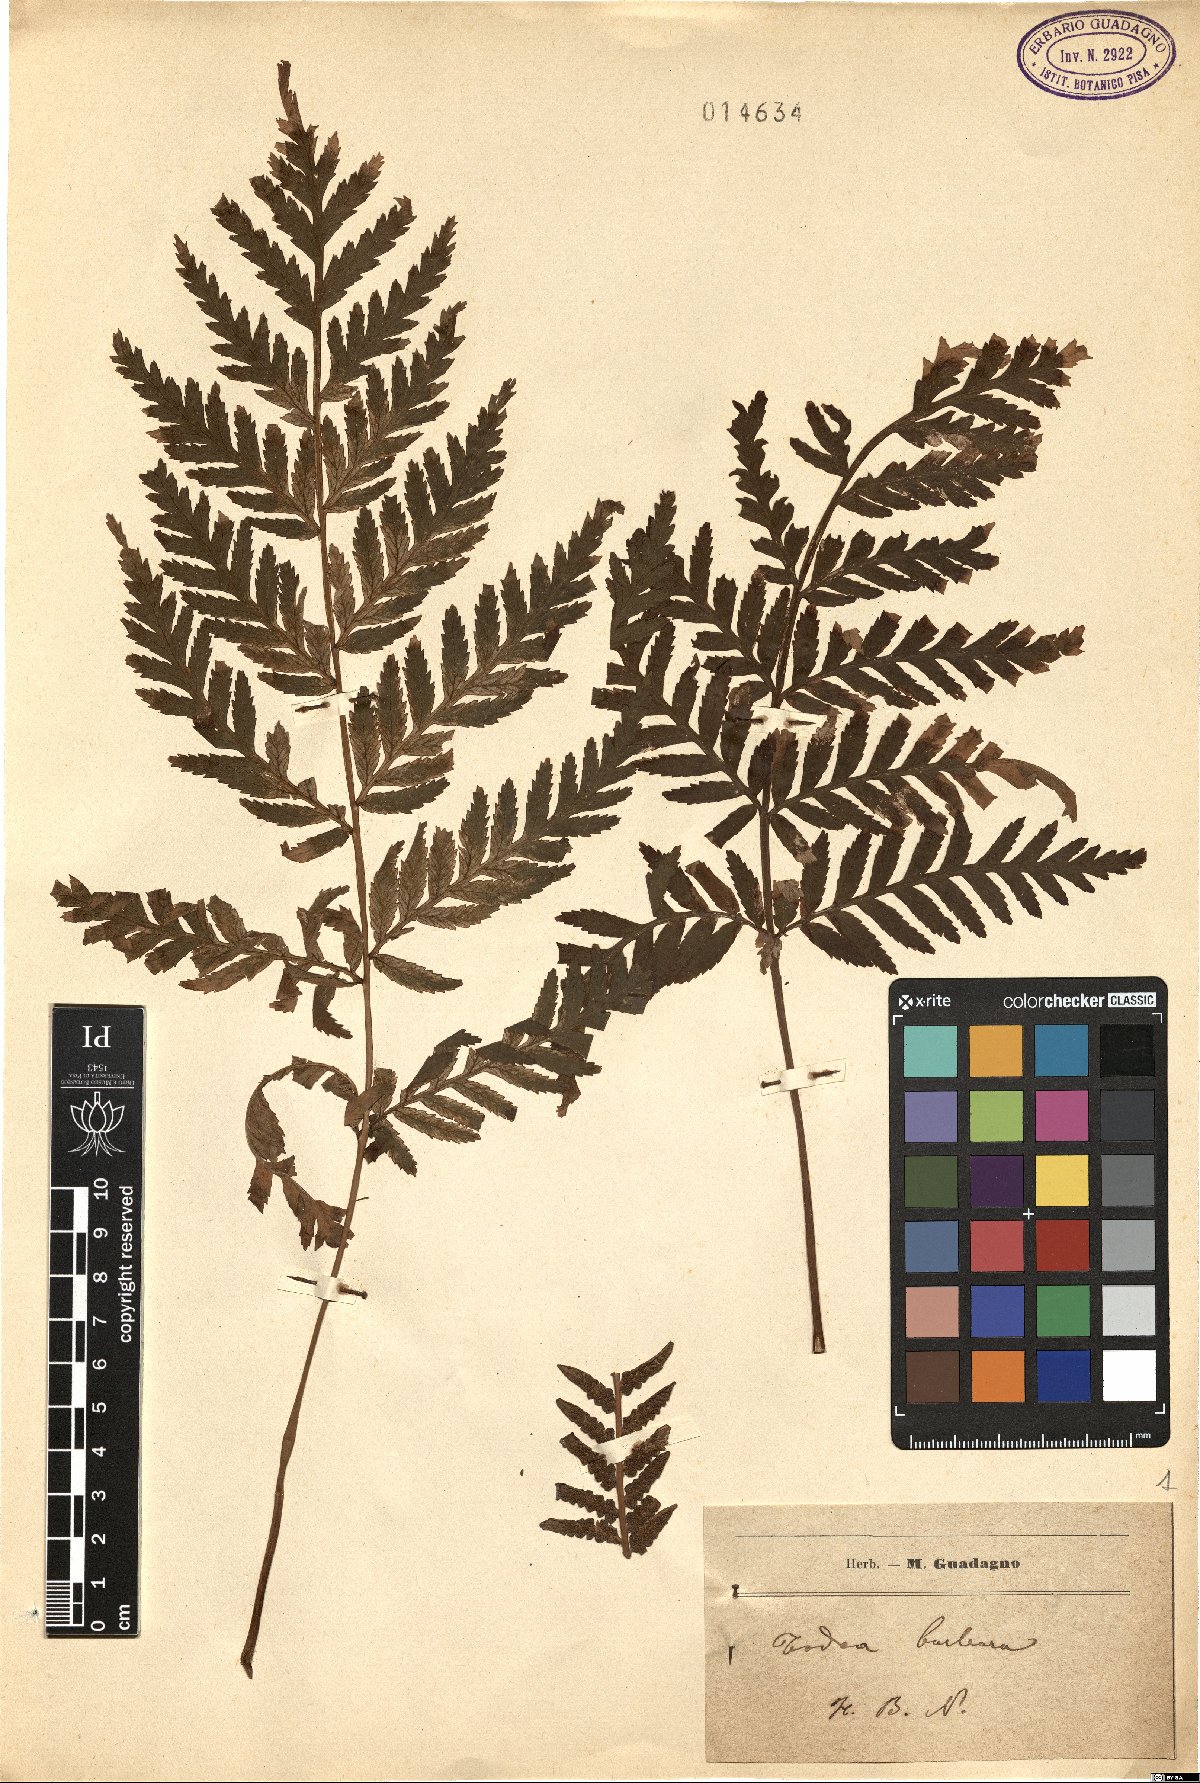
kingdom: Plantae
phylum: Tracheophyta
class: Polypodiopsida
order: Osmundales
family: Osmundaceae
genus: Todea
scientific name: Todea barbara
